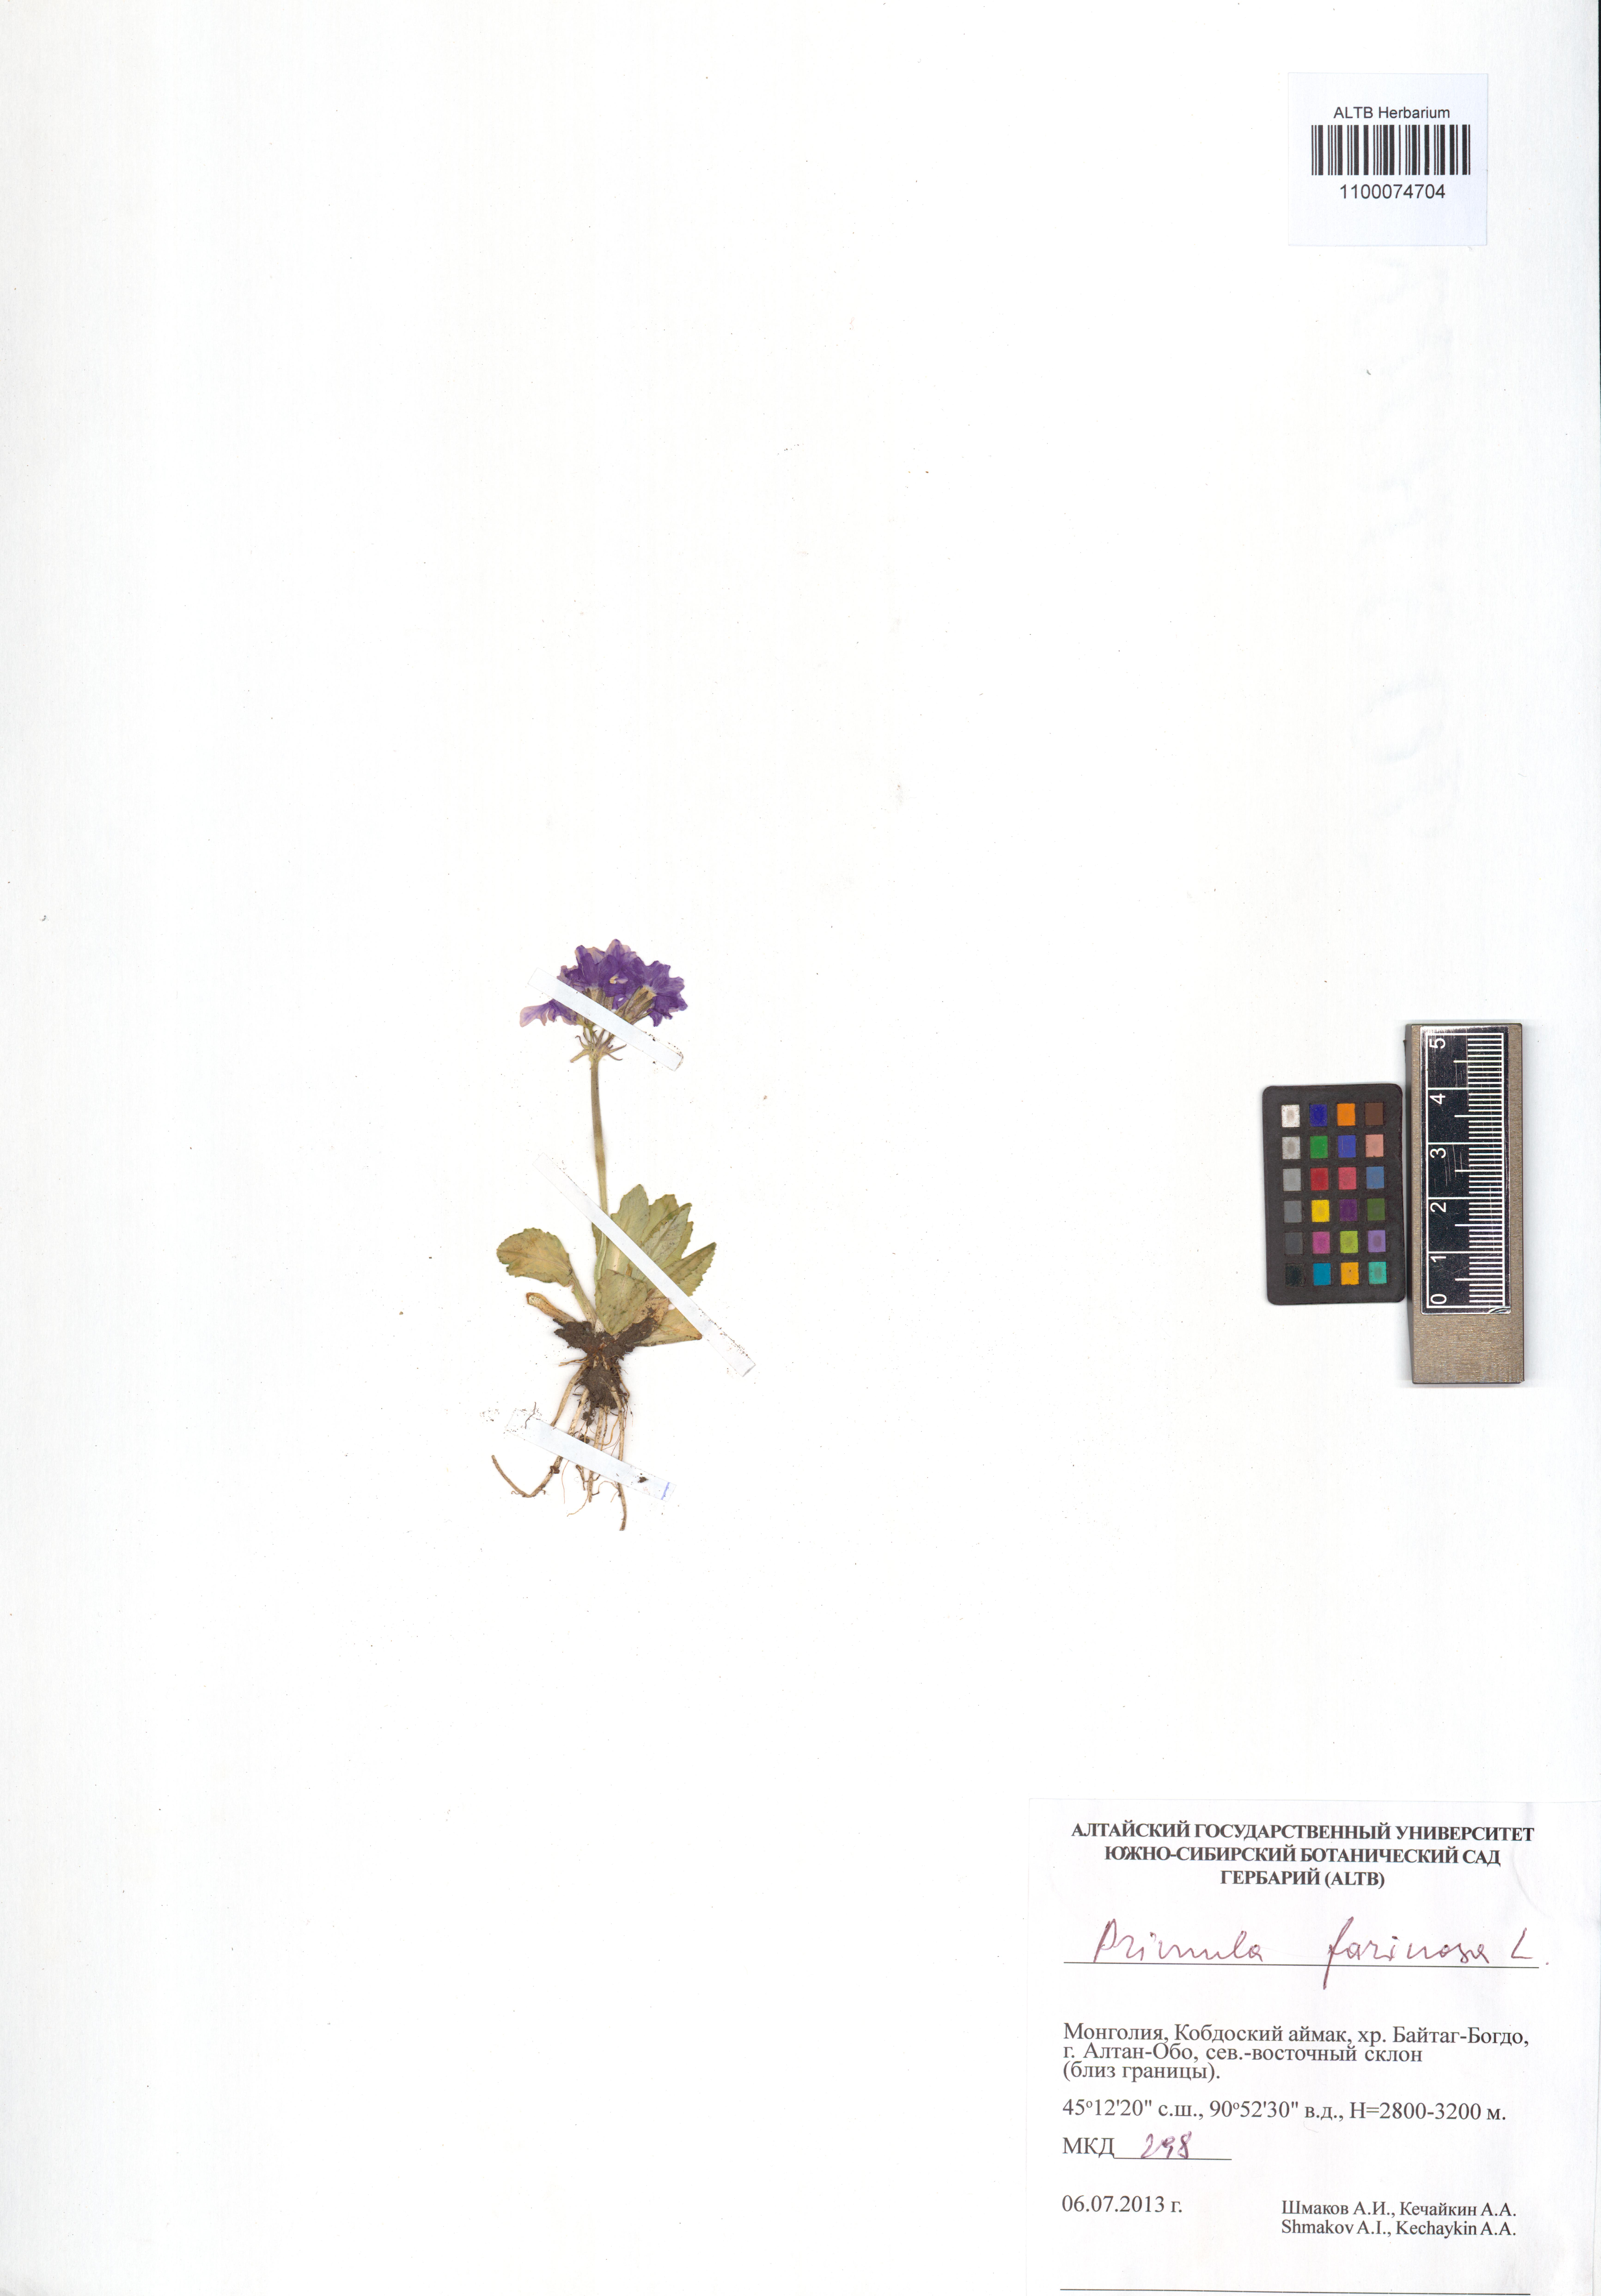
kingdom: Plantae
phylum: Tracheophyta
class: Magnoliopsida
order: Ericales
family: Primulaceae
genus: Primula
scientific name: Primula farinosa
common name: Bird's-eye primrose
